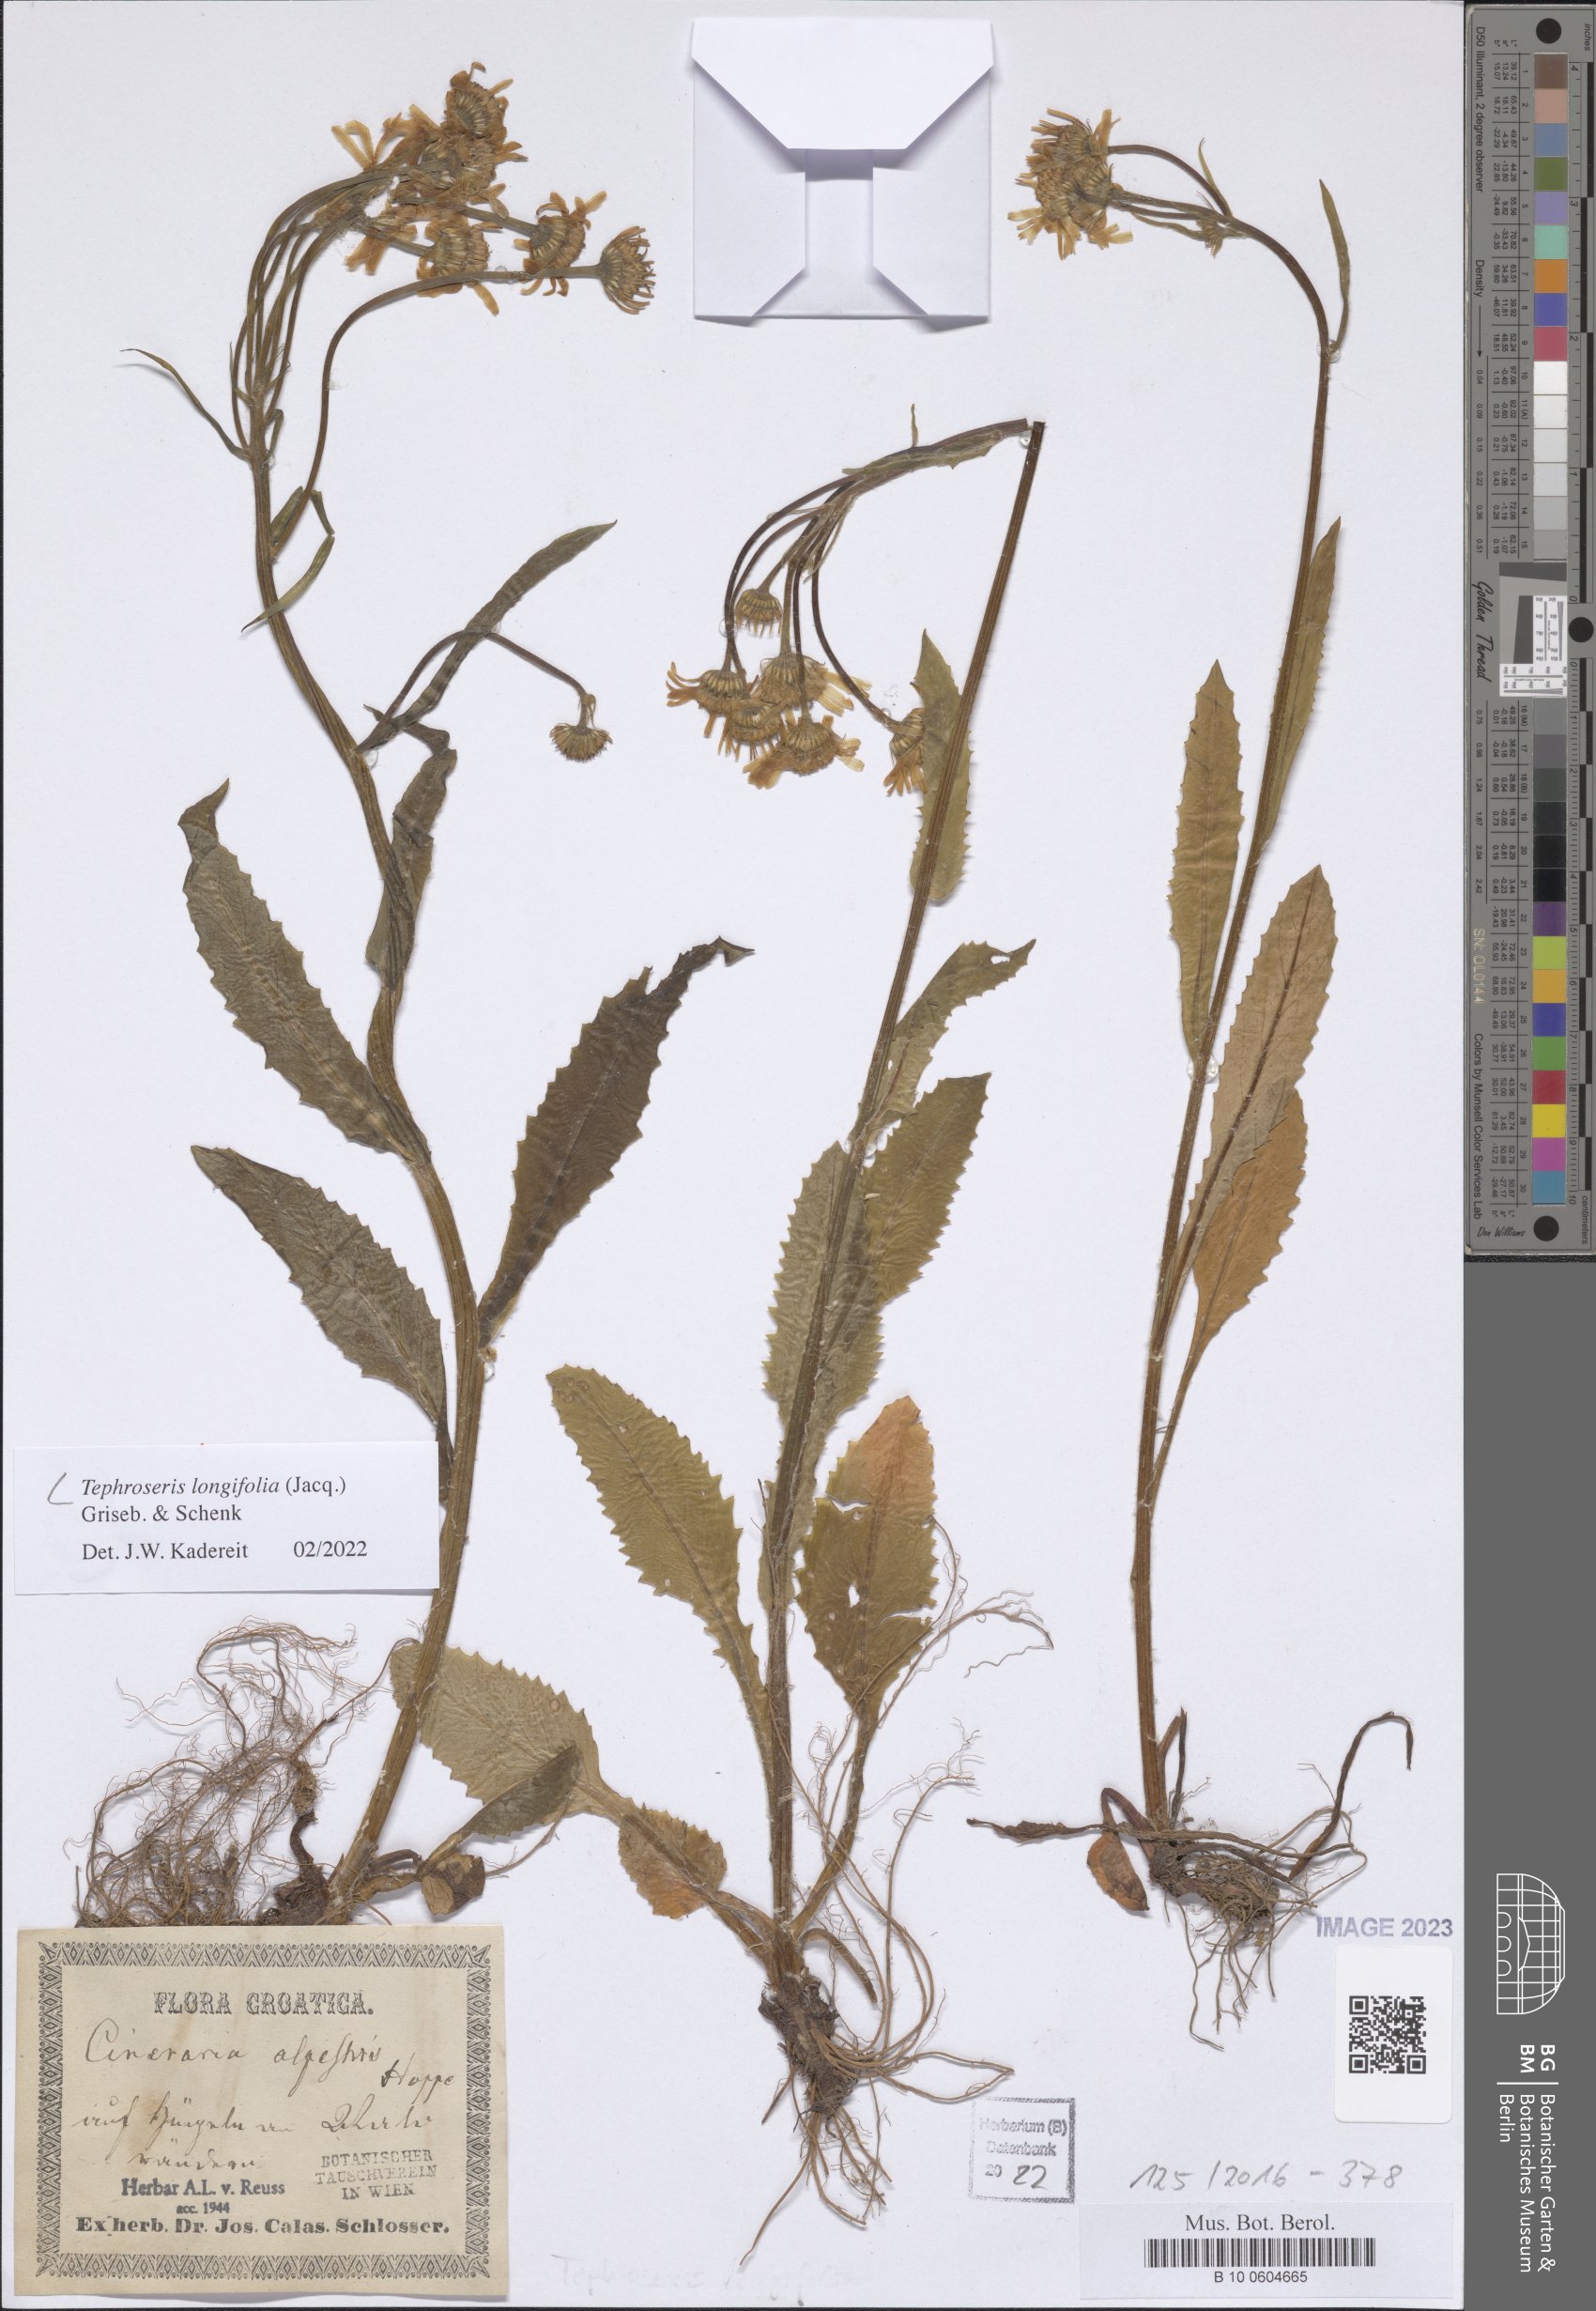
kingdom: Plantae
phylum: Tracheophyta
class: Magnoliopsida
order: Asterales
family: Asteraceae
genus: Tephroseris
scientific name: Tephroseris longifolia
